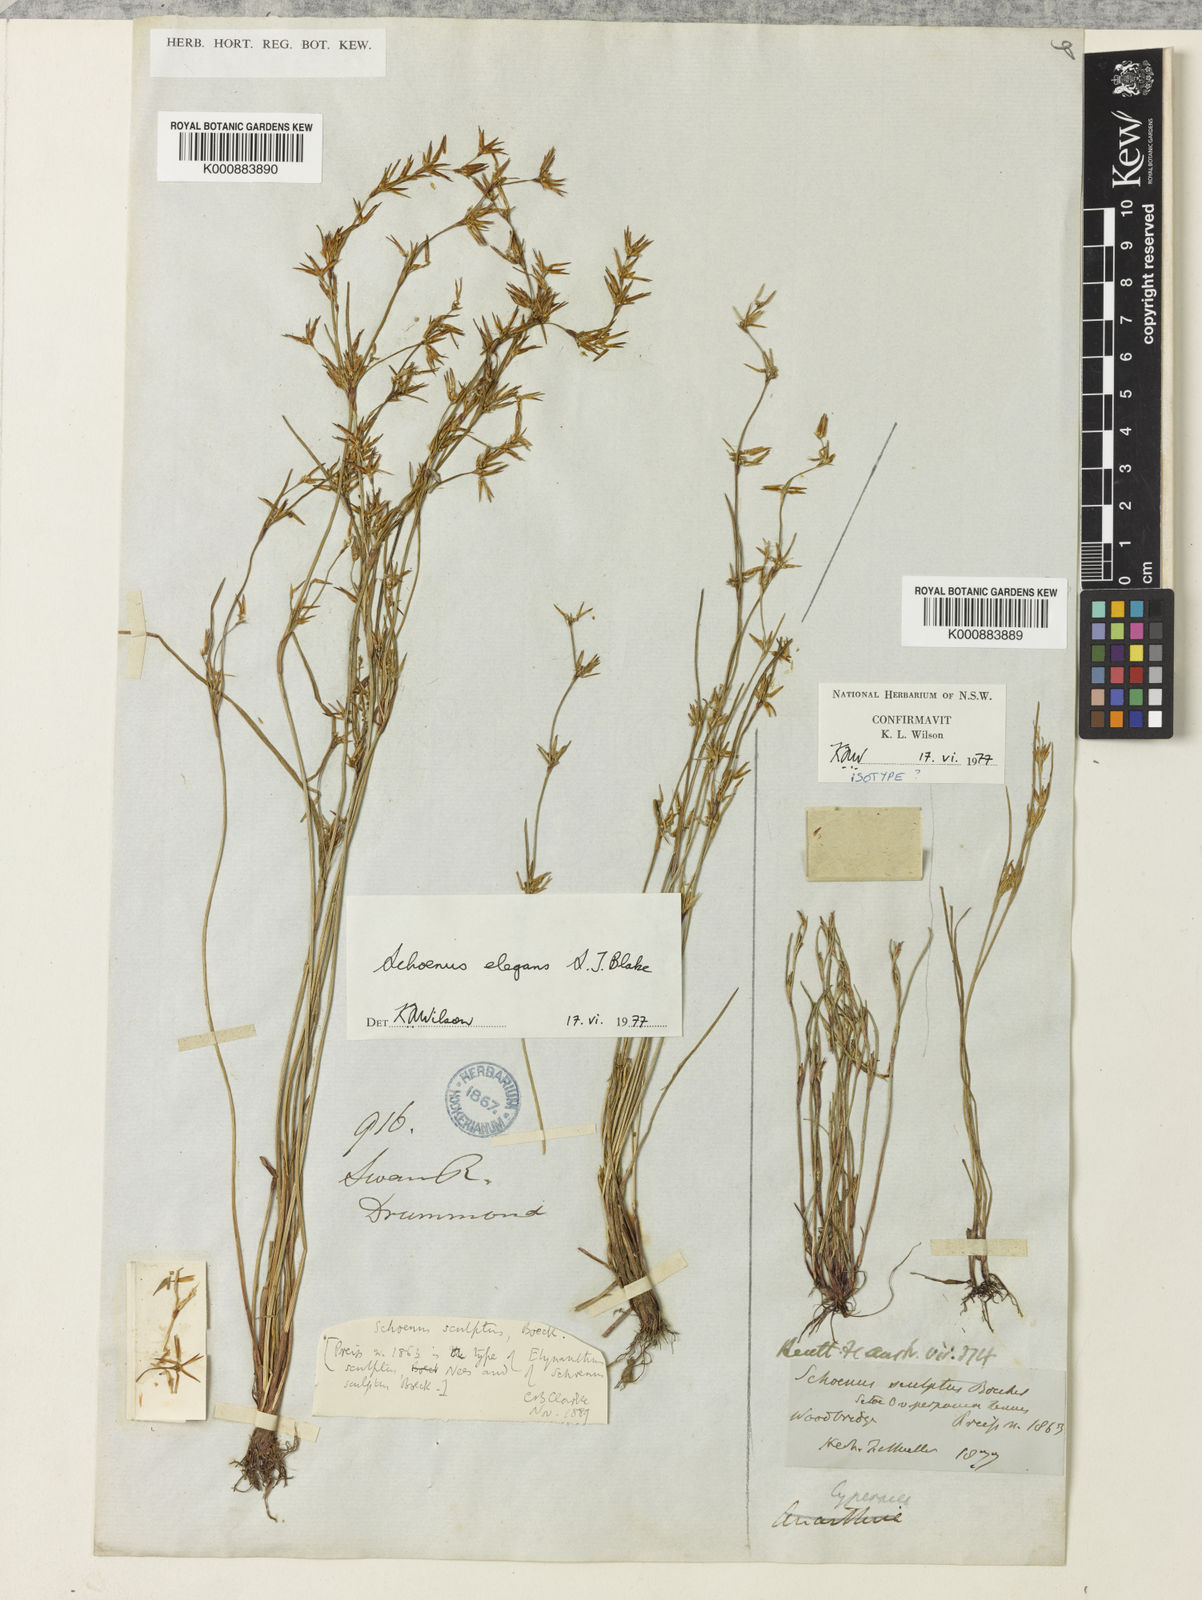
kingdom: Plantae
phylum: Tracheophyta
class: Liliopsida
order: Poales
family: Cyperaceae
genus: Schoenus
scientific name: Schoenus elegans
